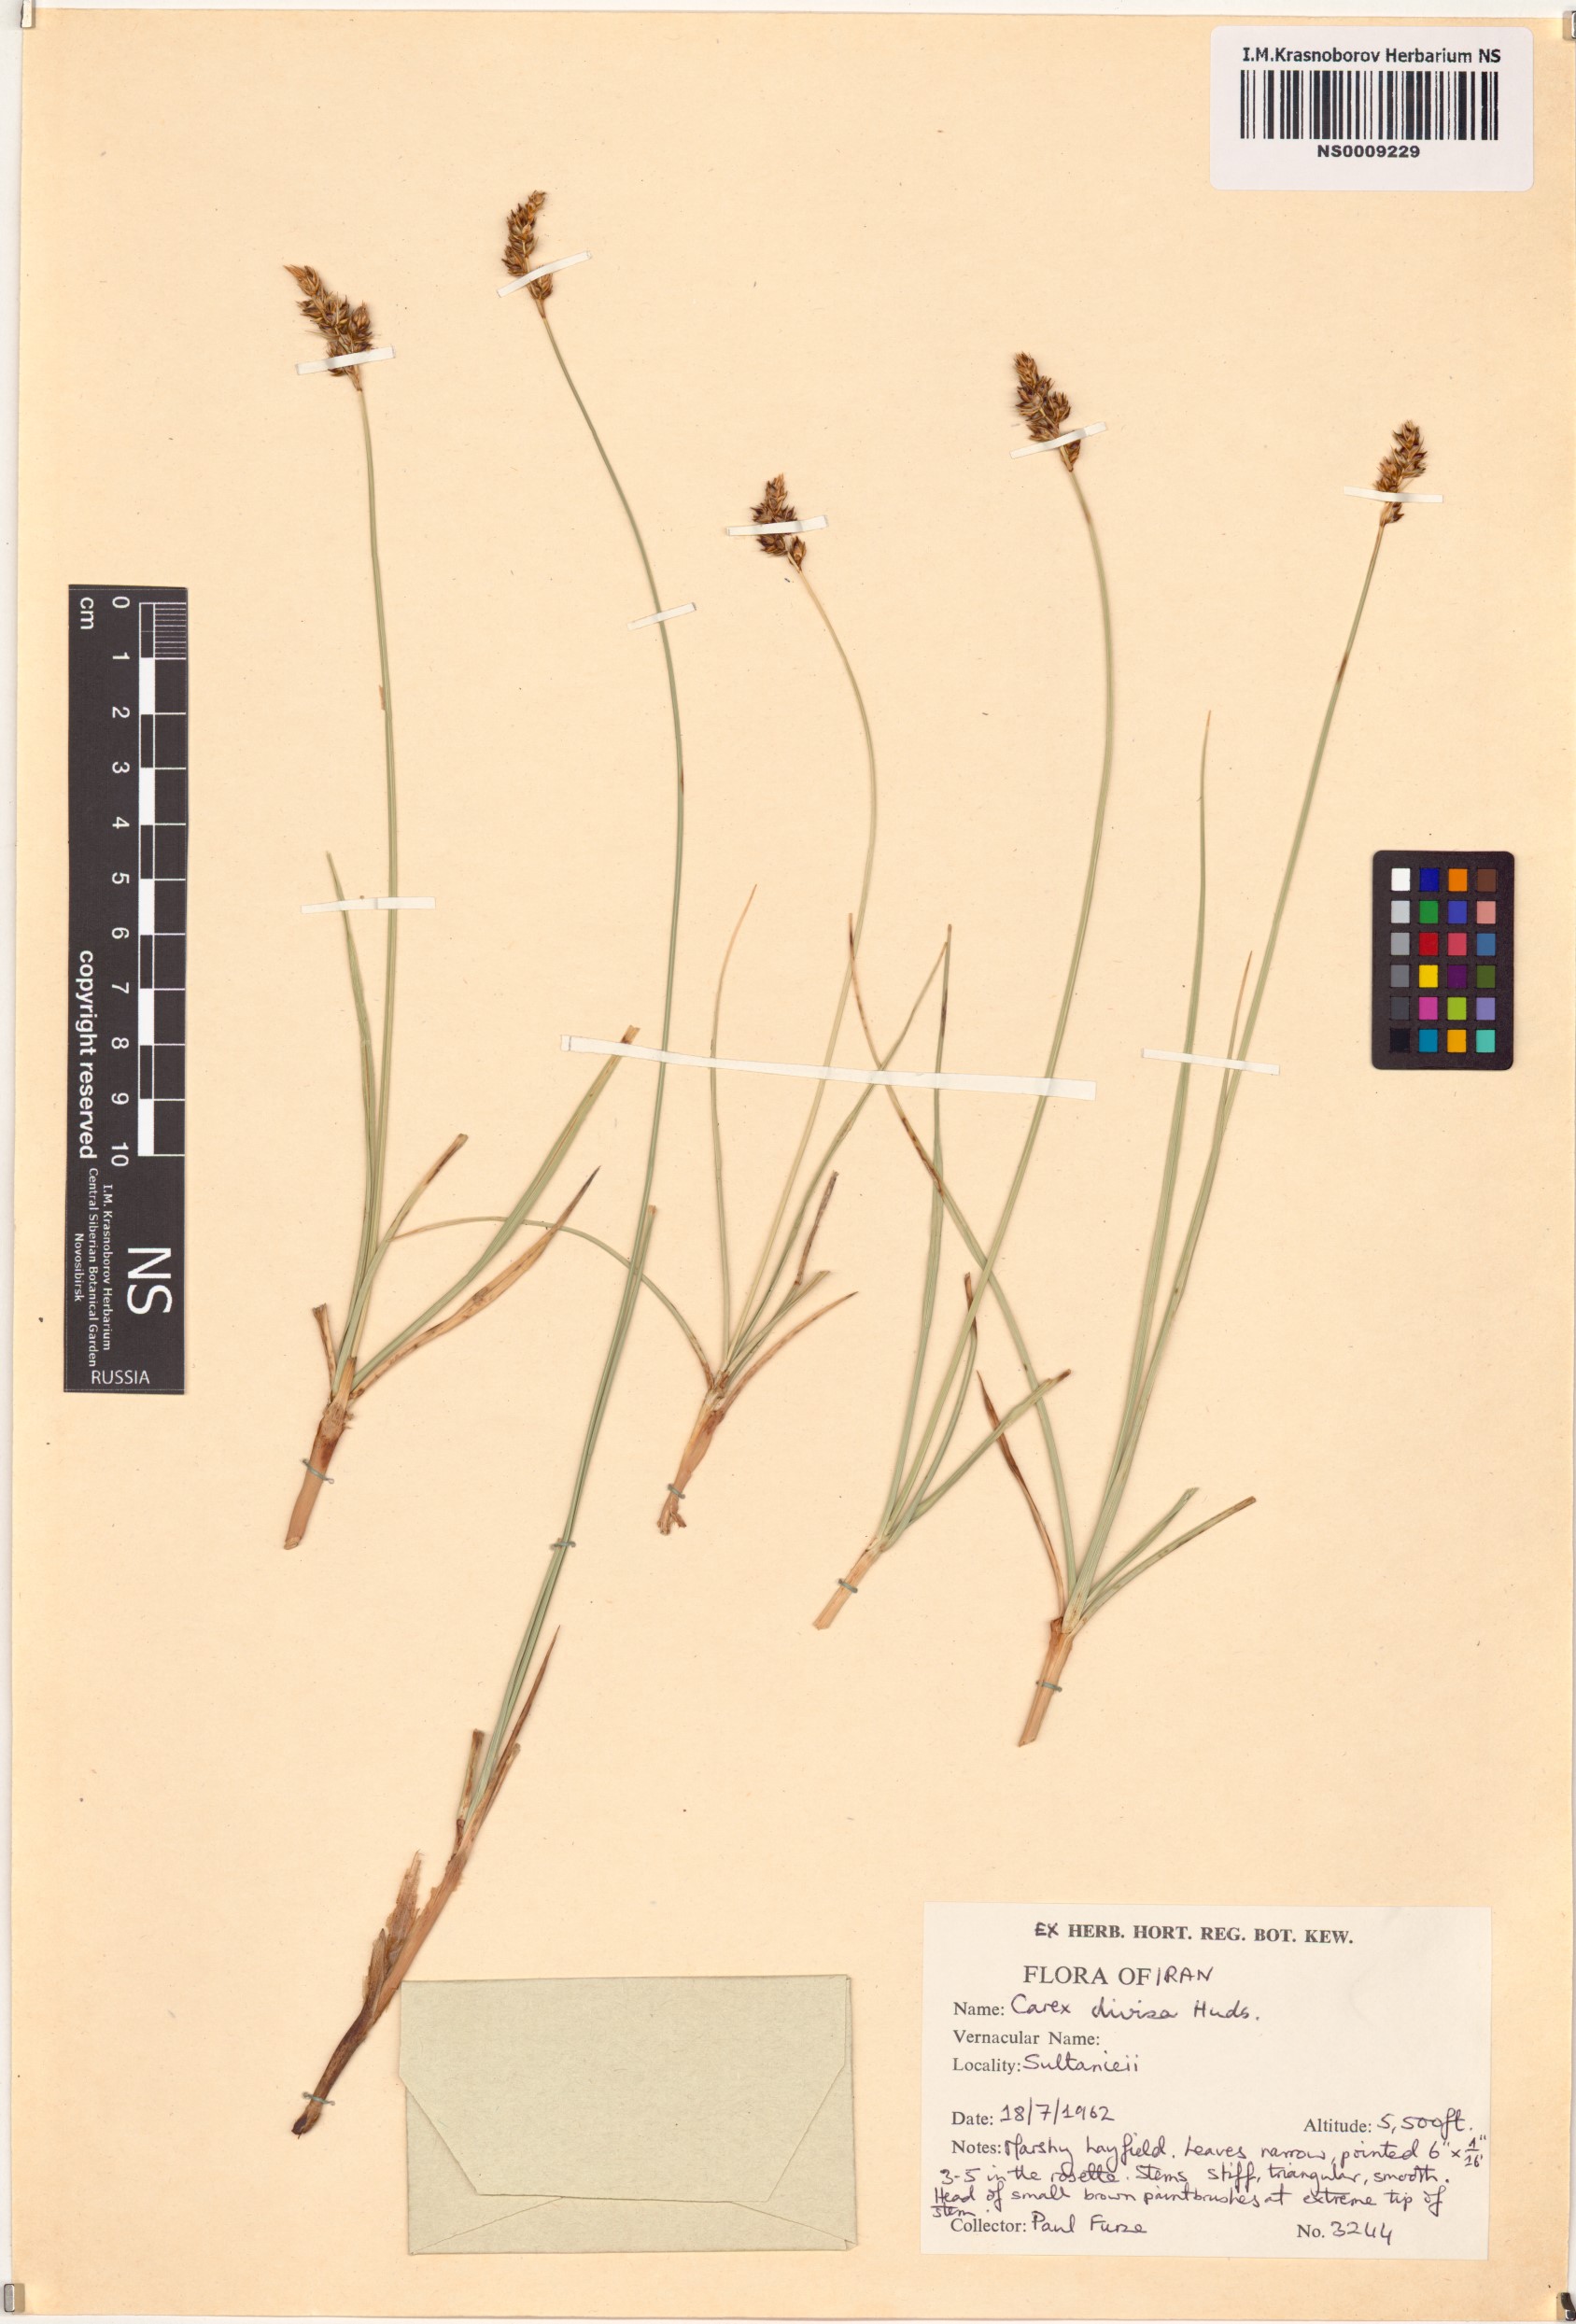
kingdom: Plantae
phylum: Tracheophyta
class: Liliopsida
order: Poales
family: Cyperaceae
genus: Carex
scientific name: Carex divisa
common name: Divided sedge
